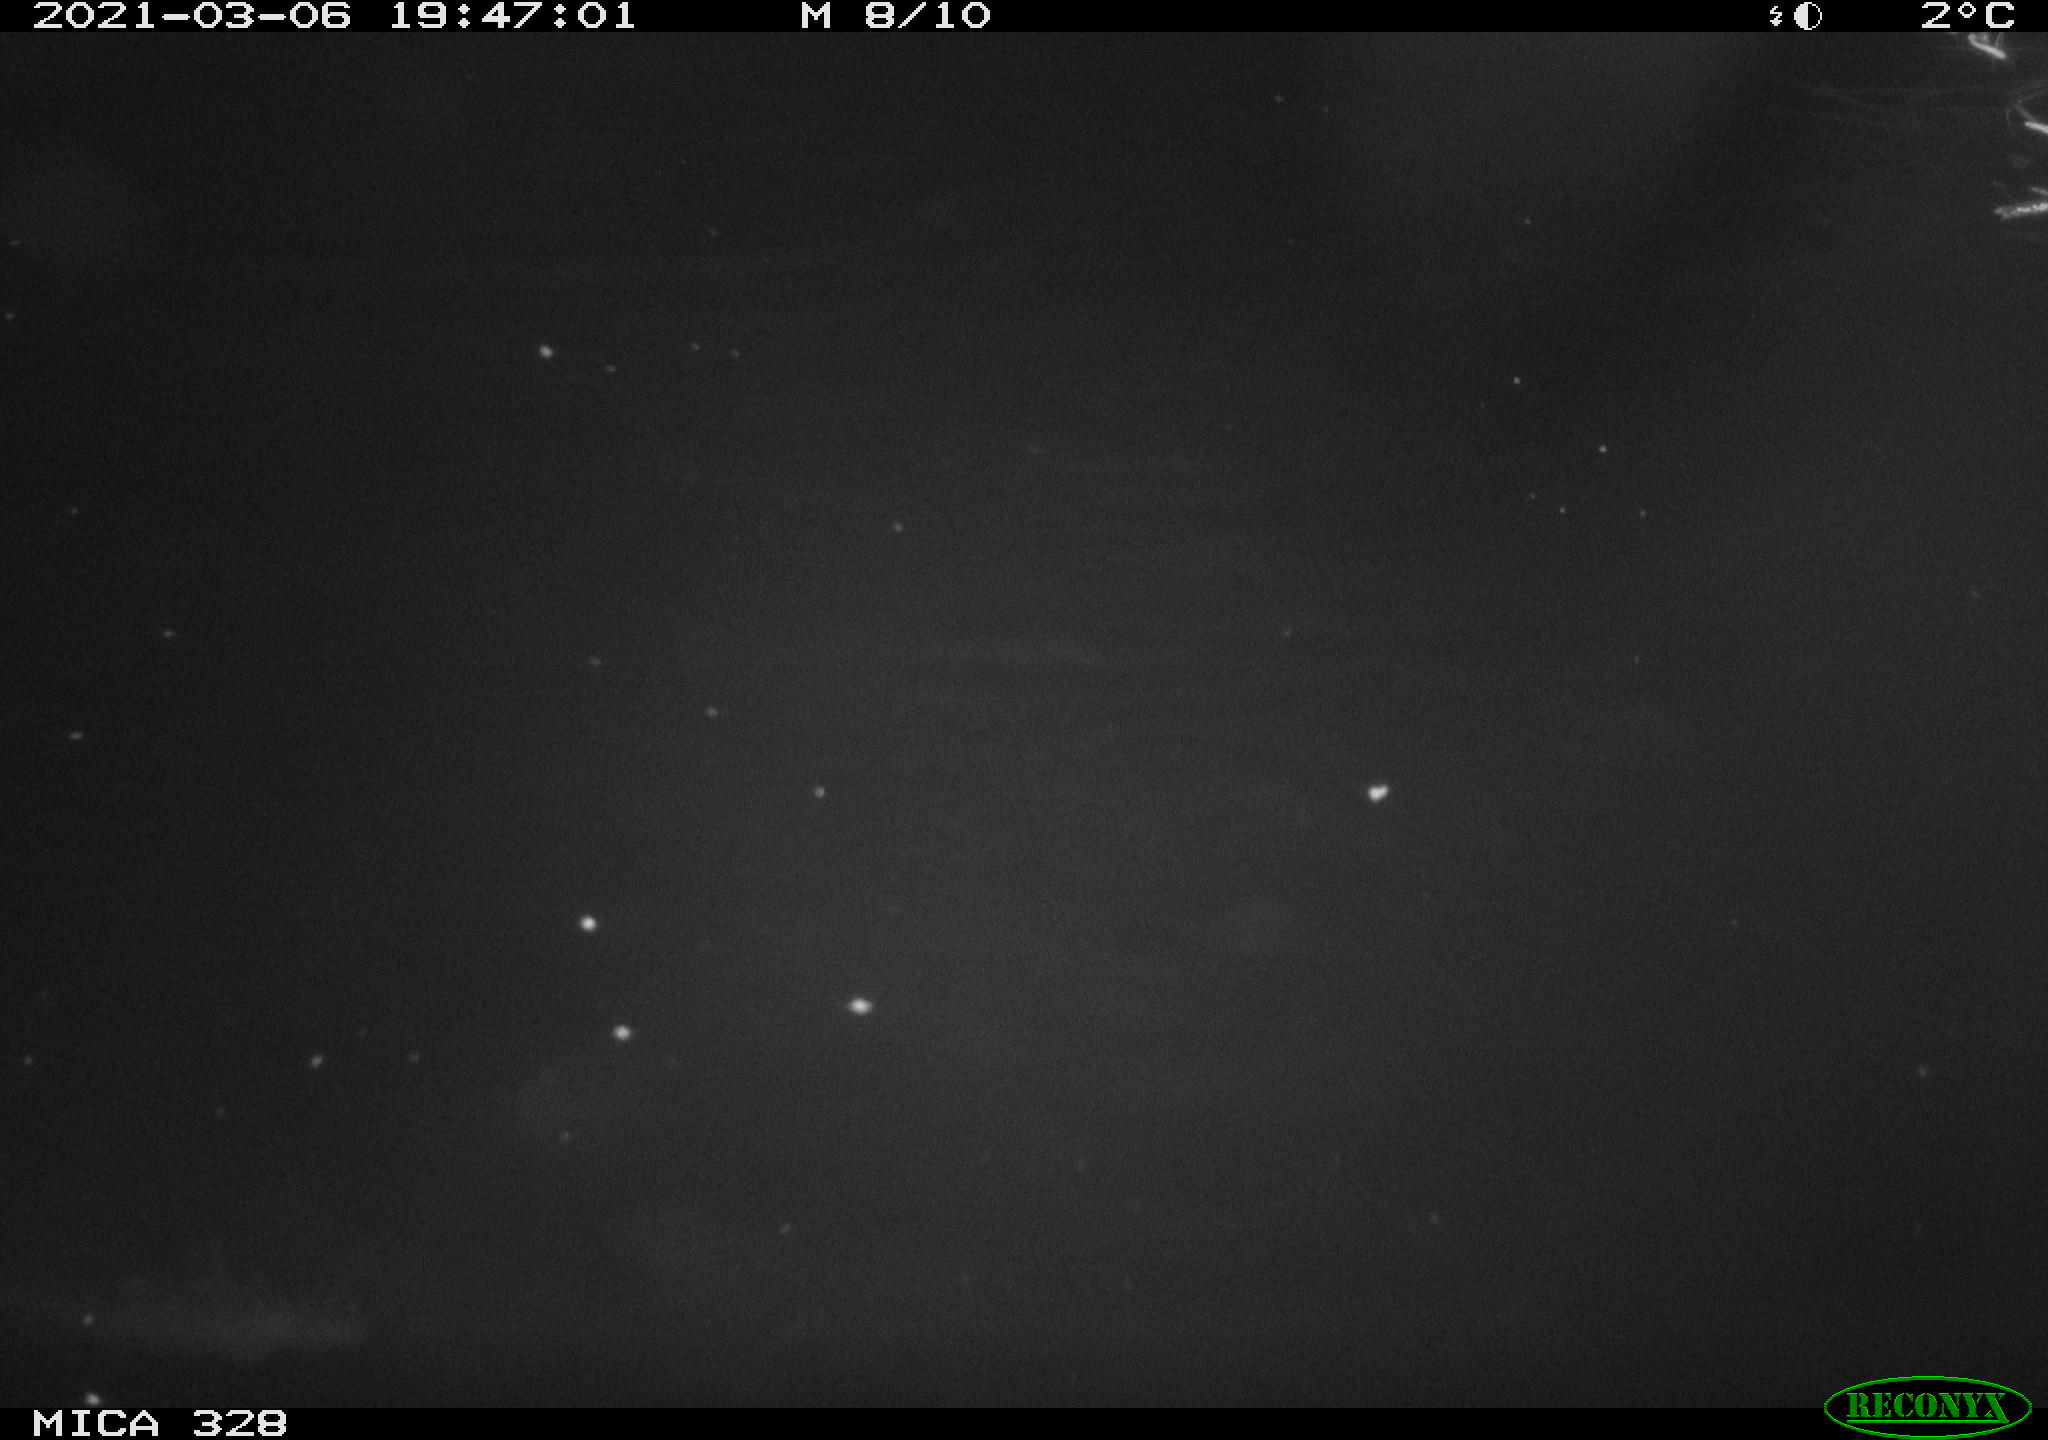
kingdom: Animalia
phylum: Chordata
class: Mammalia
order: Rodentia
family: Cricetidae
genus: Ondatra
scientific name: Ondatra zibethicus
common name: Muskrat
